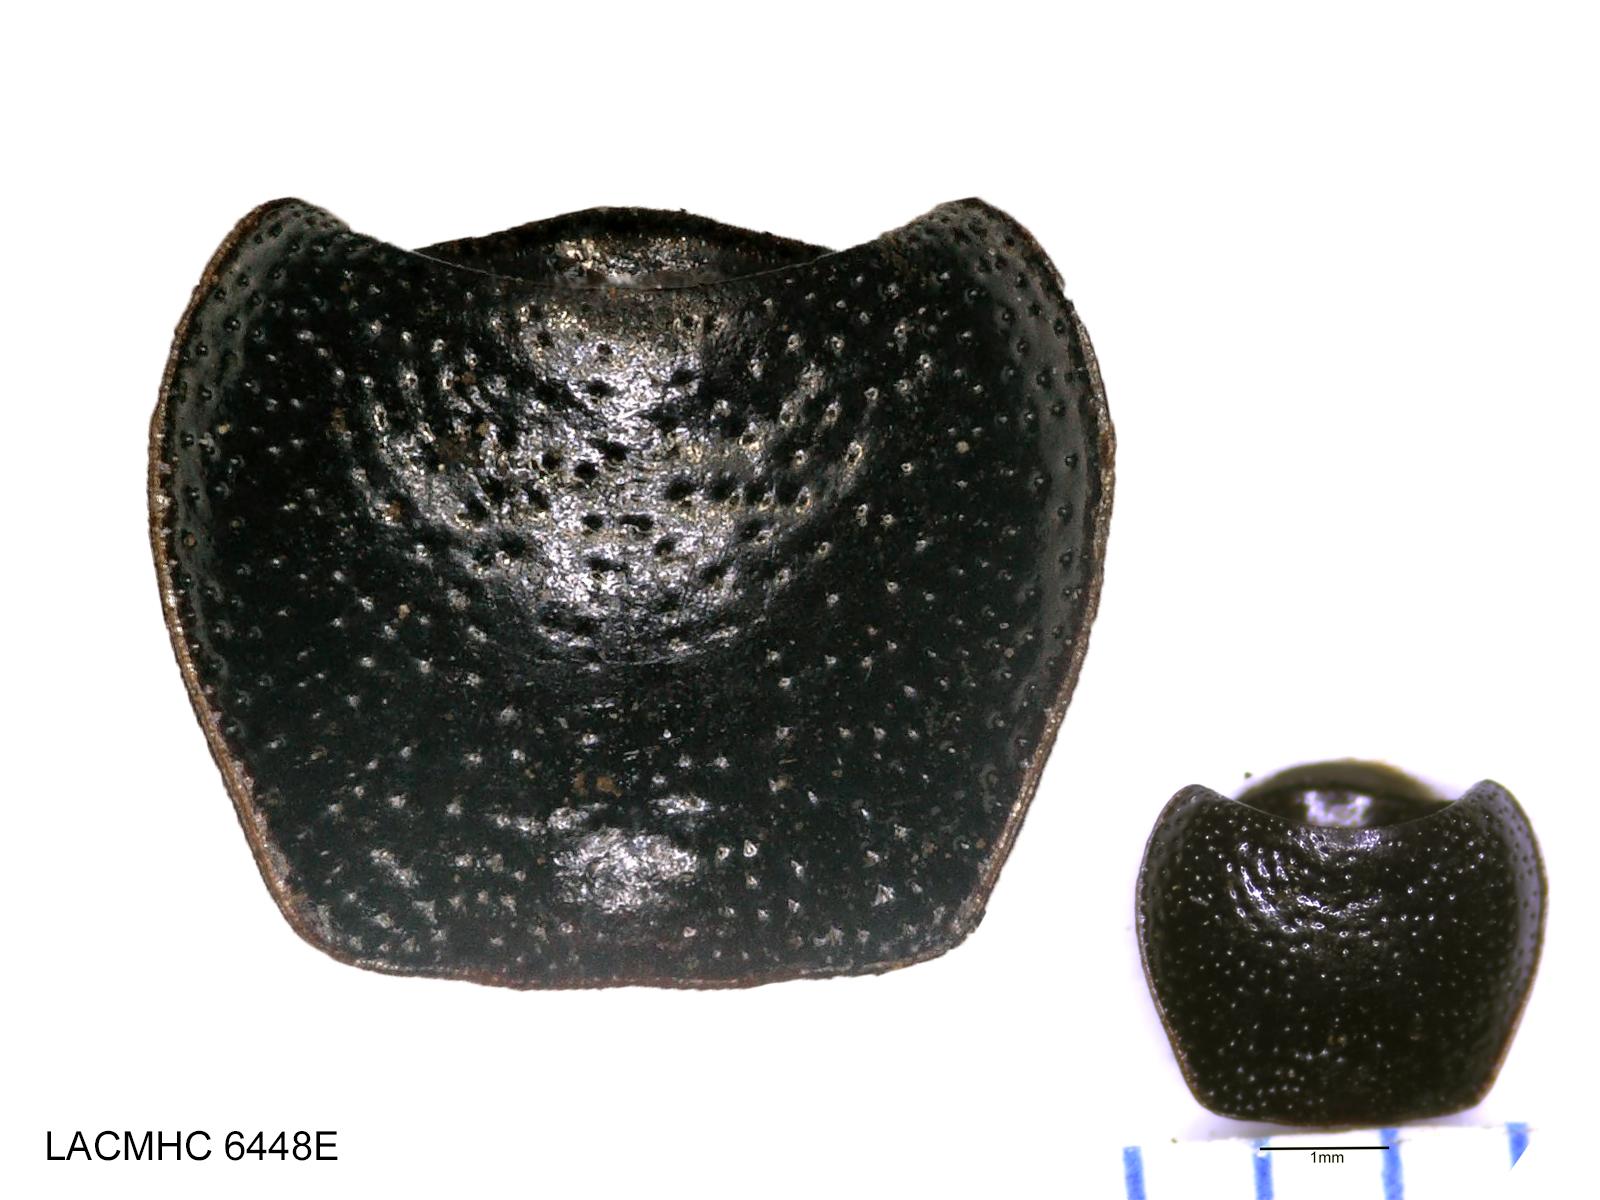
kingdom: Animalia
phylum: Arthropoda
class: Insecta
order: Coleoptera
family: Carabidae
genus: Dicheirus
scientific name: Dicheirus dilatatus
